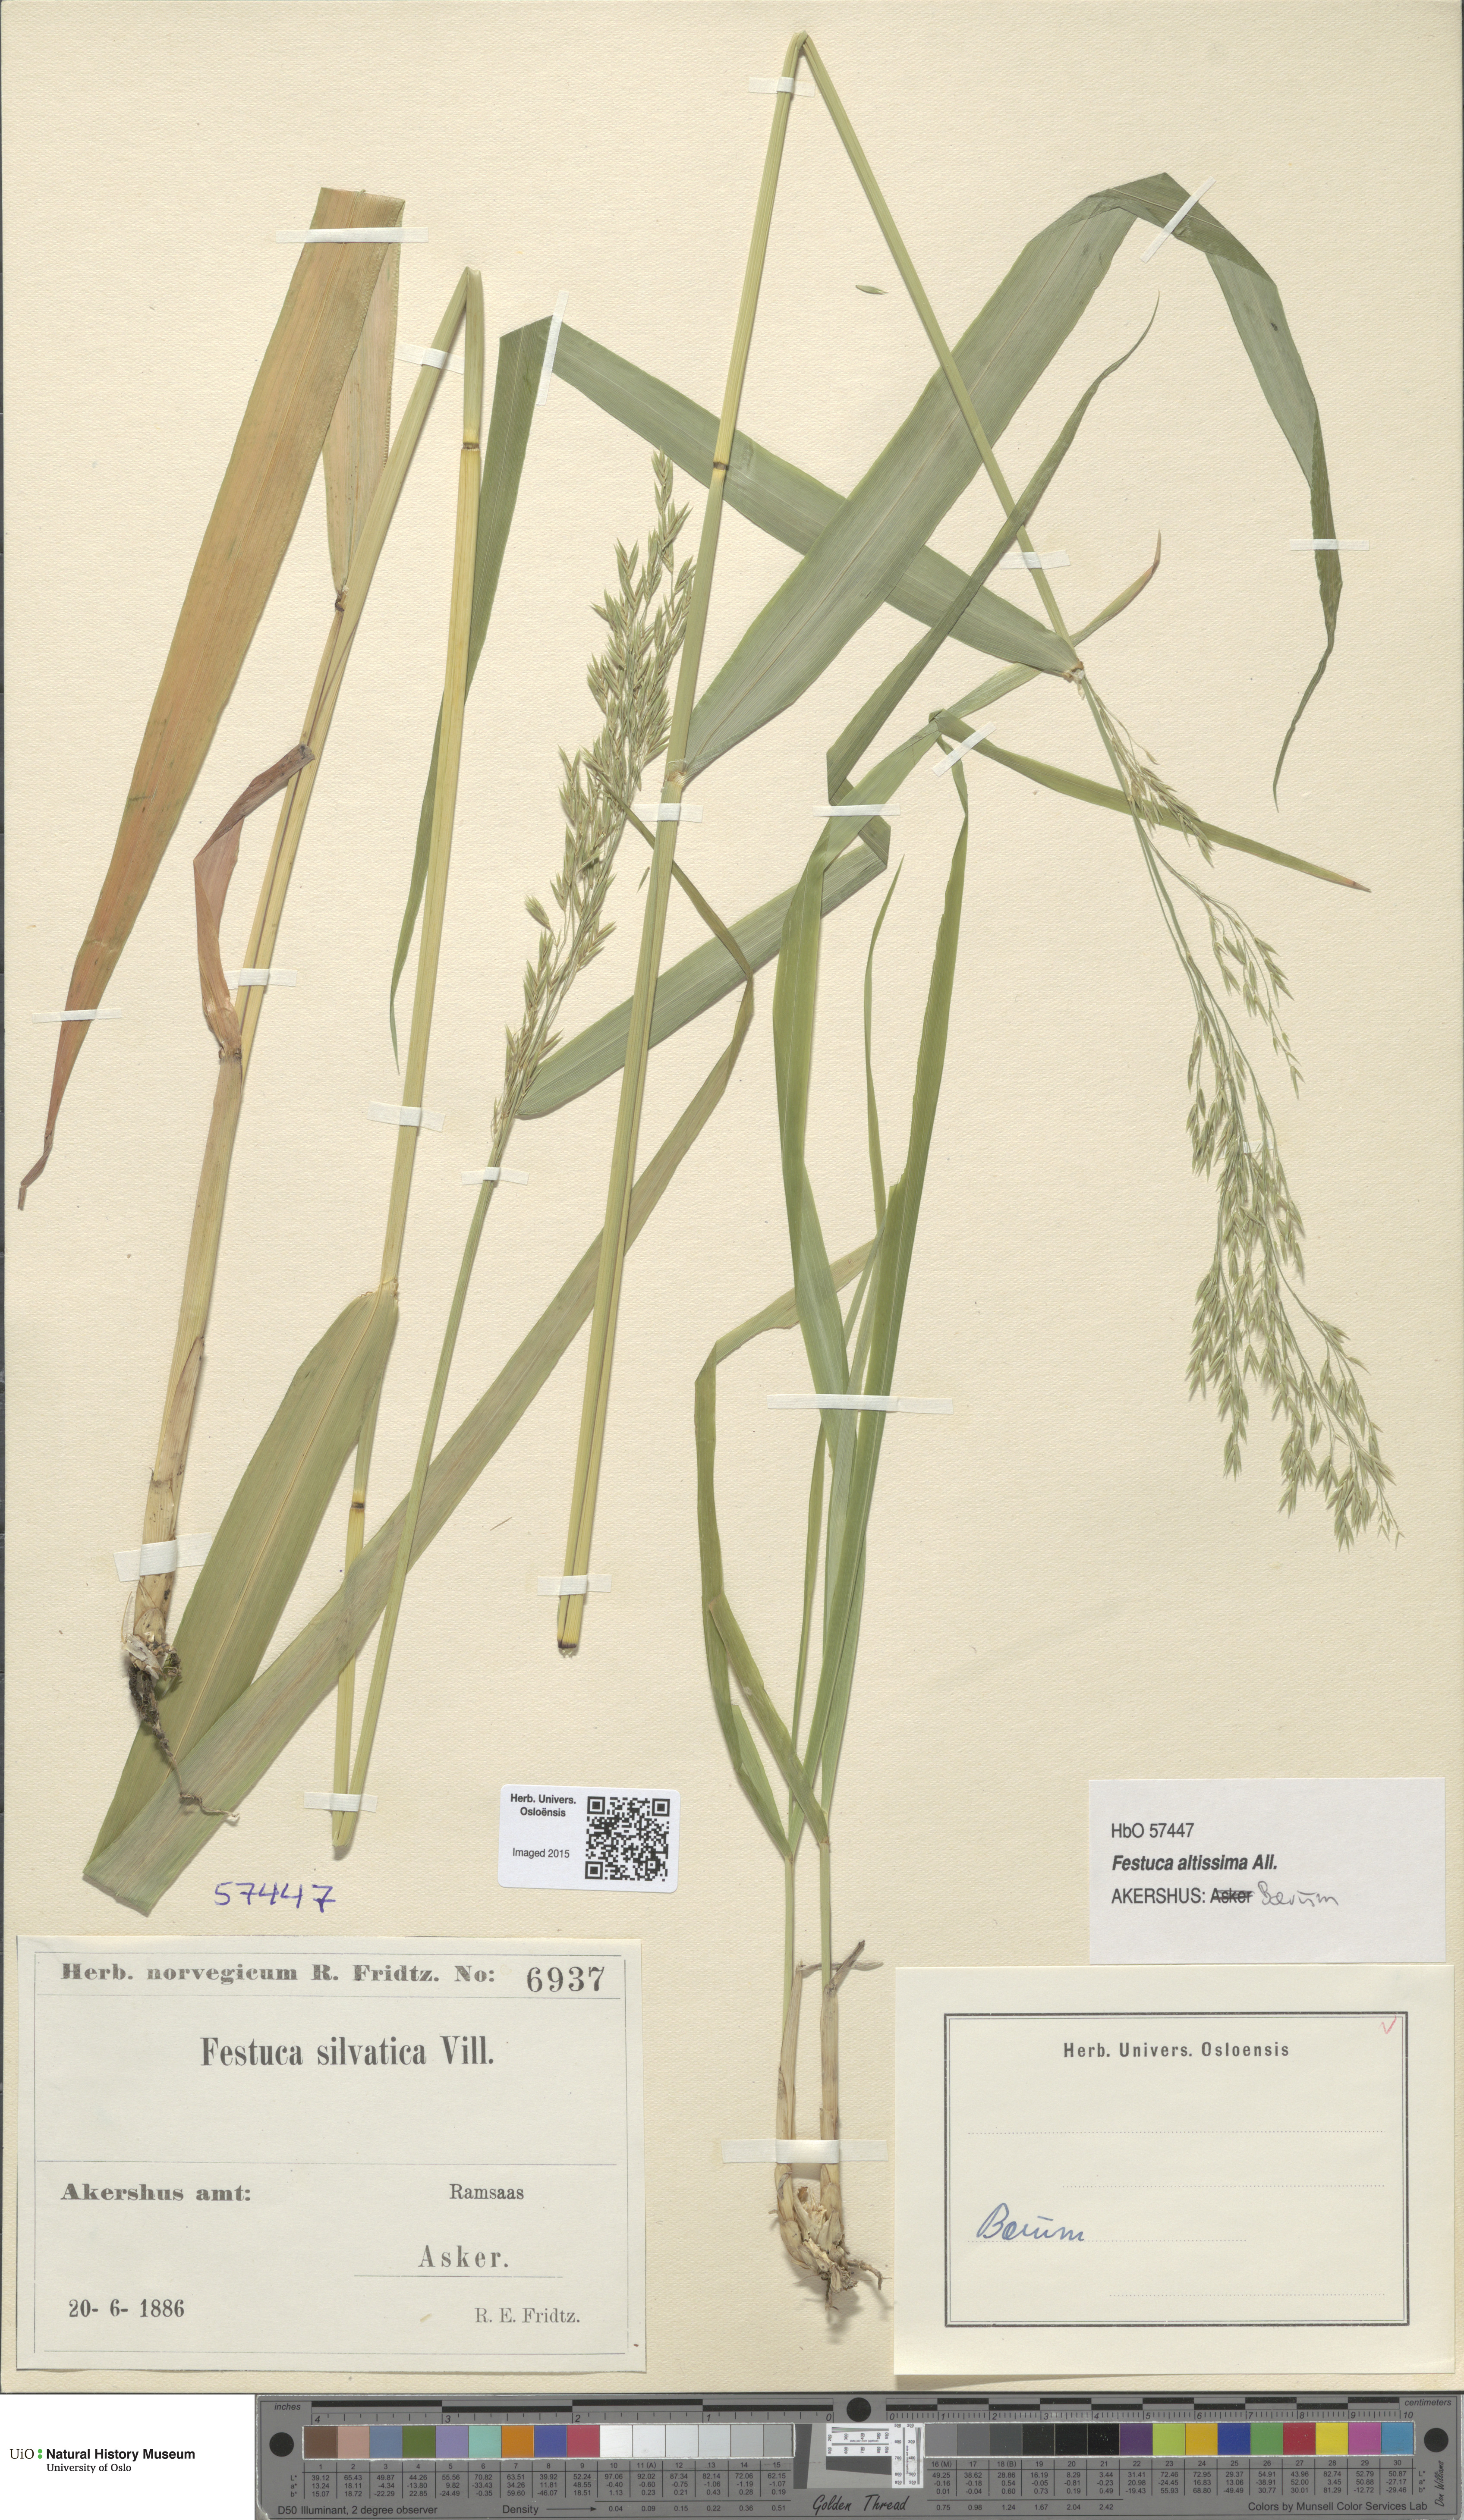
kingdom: Plantae
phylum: Tracheophyta
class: Liliopsida
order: Poales
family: Poaceae
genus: Festuca
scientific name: Festuca altissima
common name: Wood fescue
